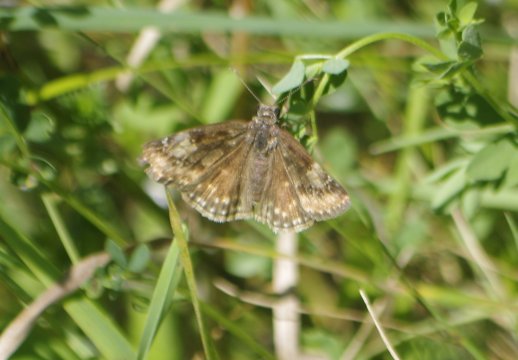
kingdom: Animalia
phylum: Arthropoda
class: Insecta
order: Lepidoptera
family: Hesperiidae
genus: Gesta
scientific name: Gesta
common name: Juvenal's Duskywing
